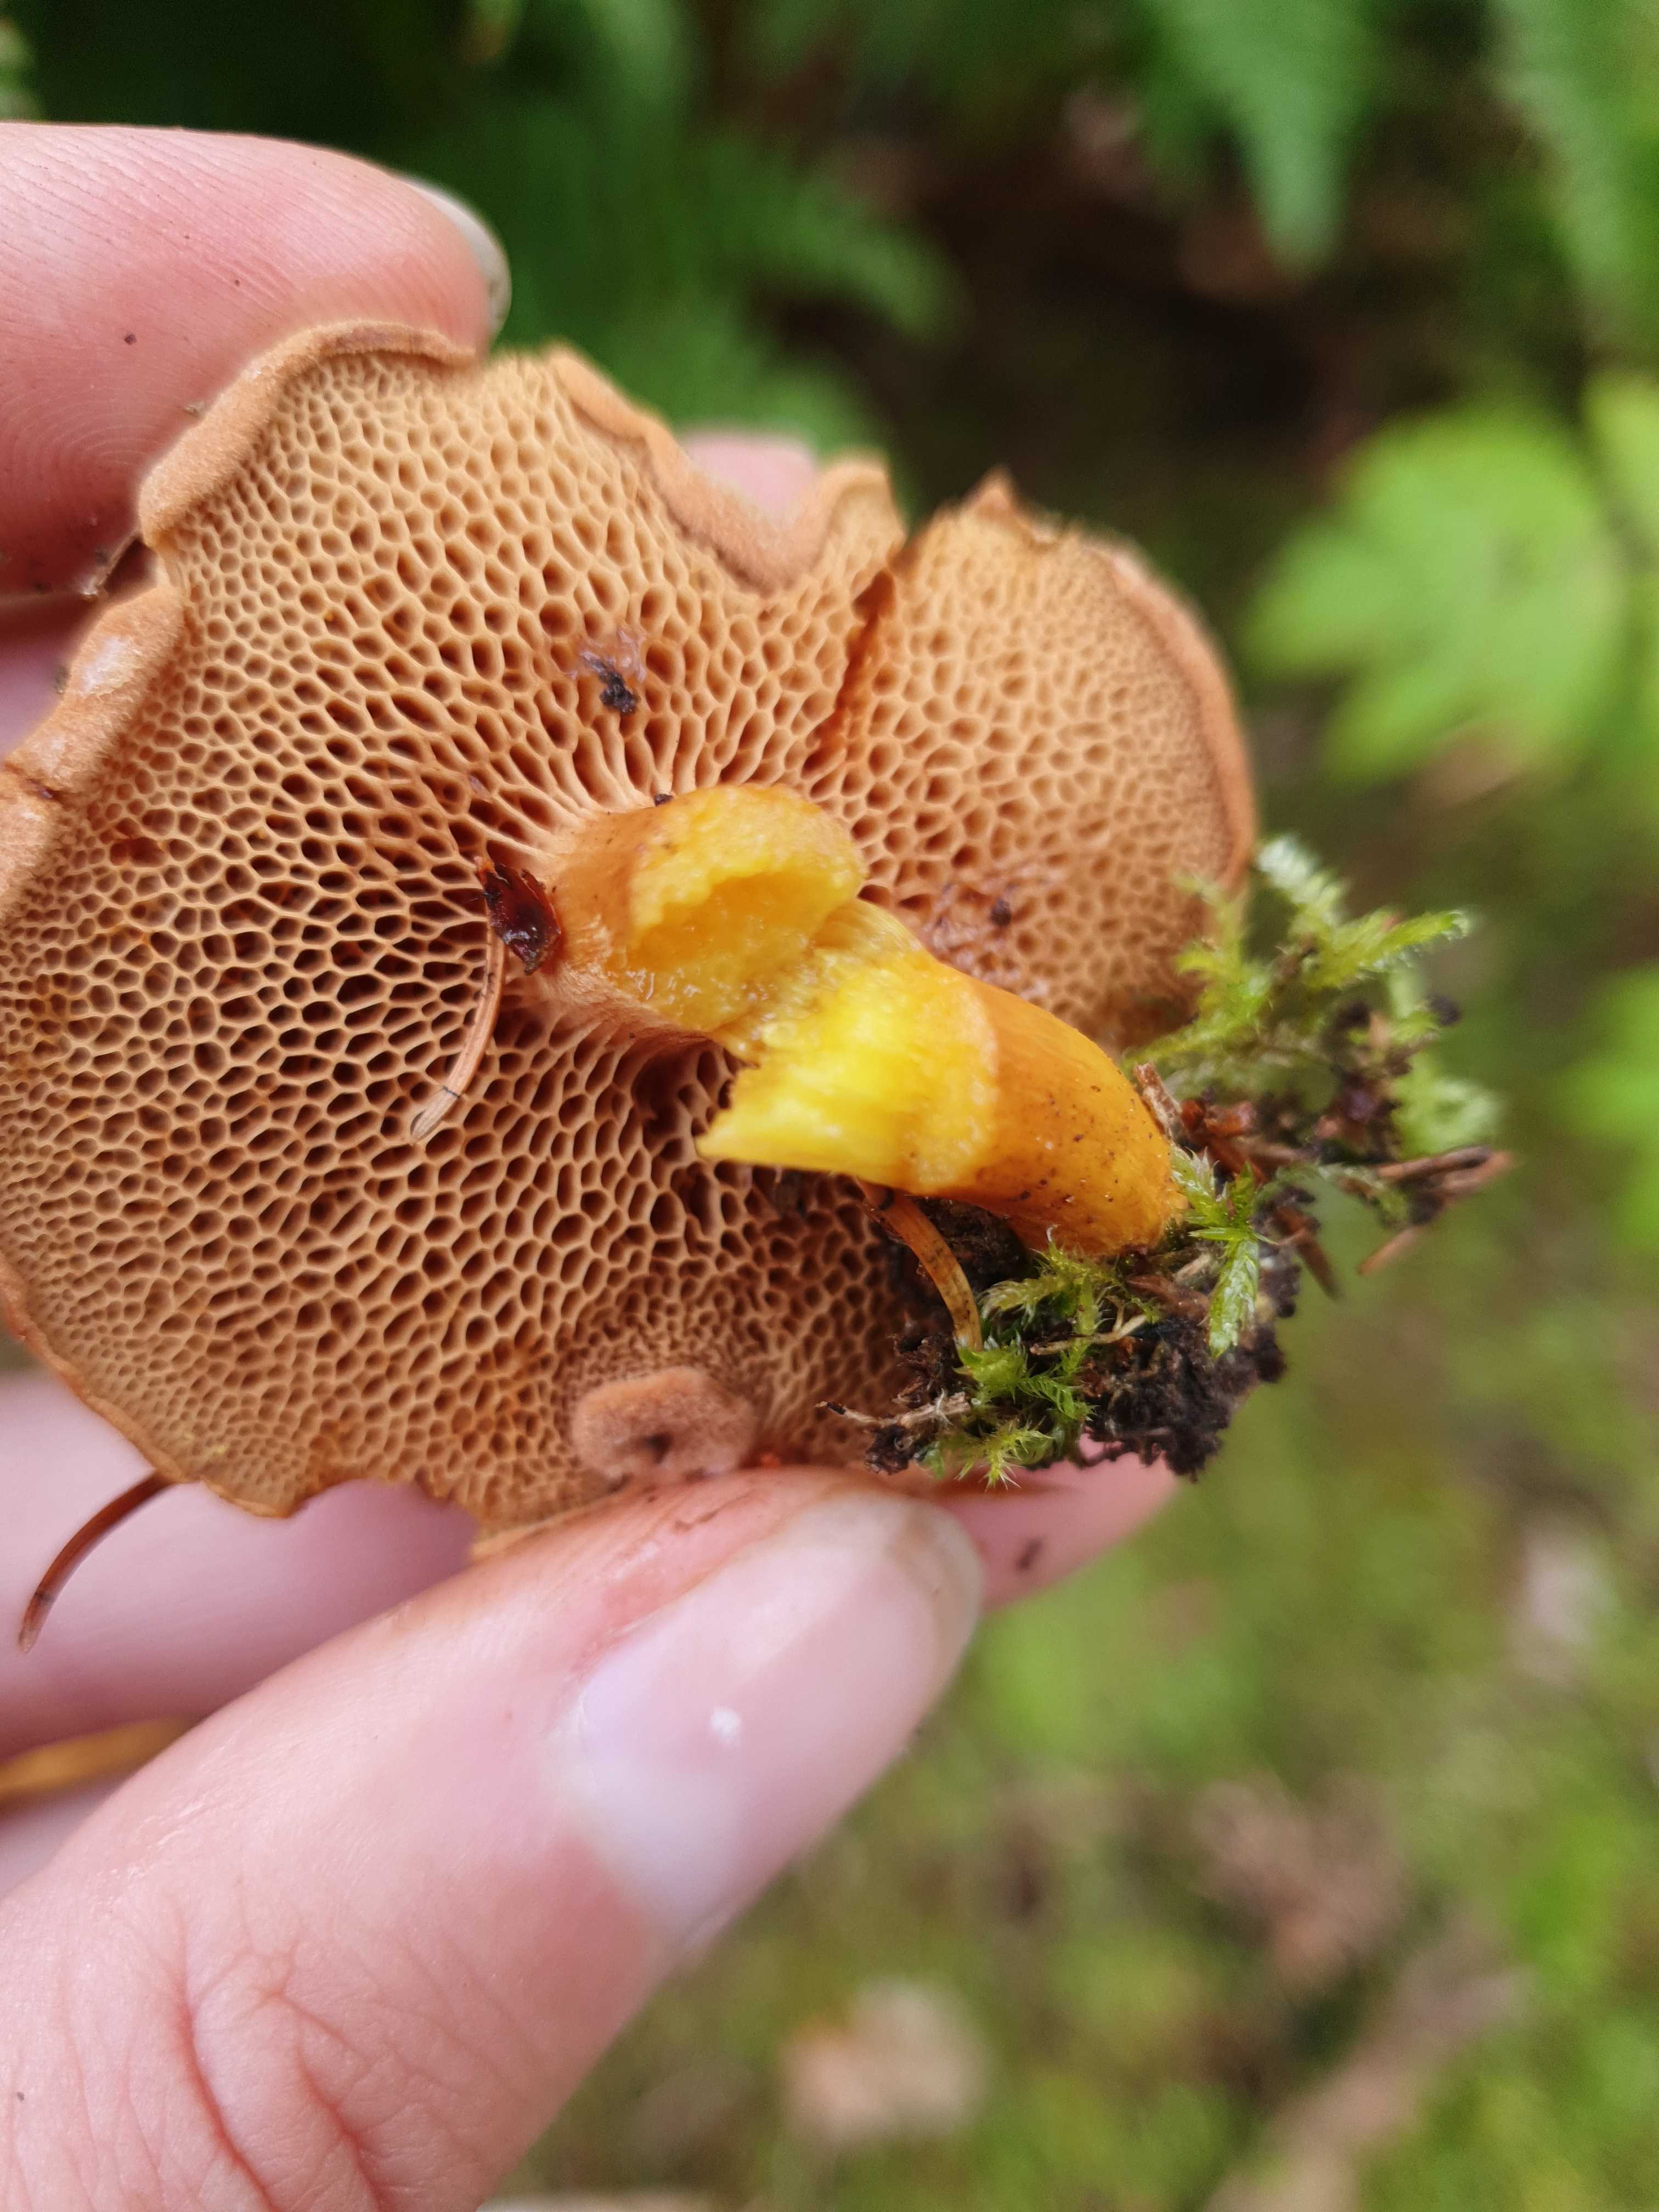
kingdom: Fungi
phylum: Basidiomycota
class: Agaricomycetes
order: Boletales
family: Boletaceae
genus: Chalciporus
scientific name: Chalciporus piperatus
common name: peberrørhat
